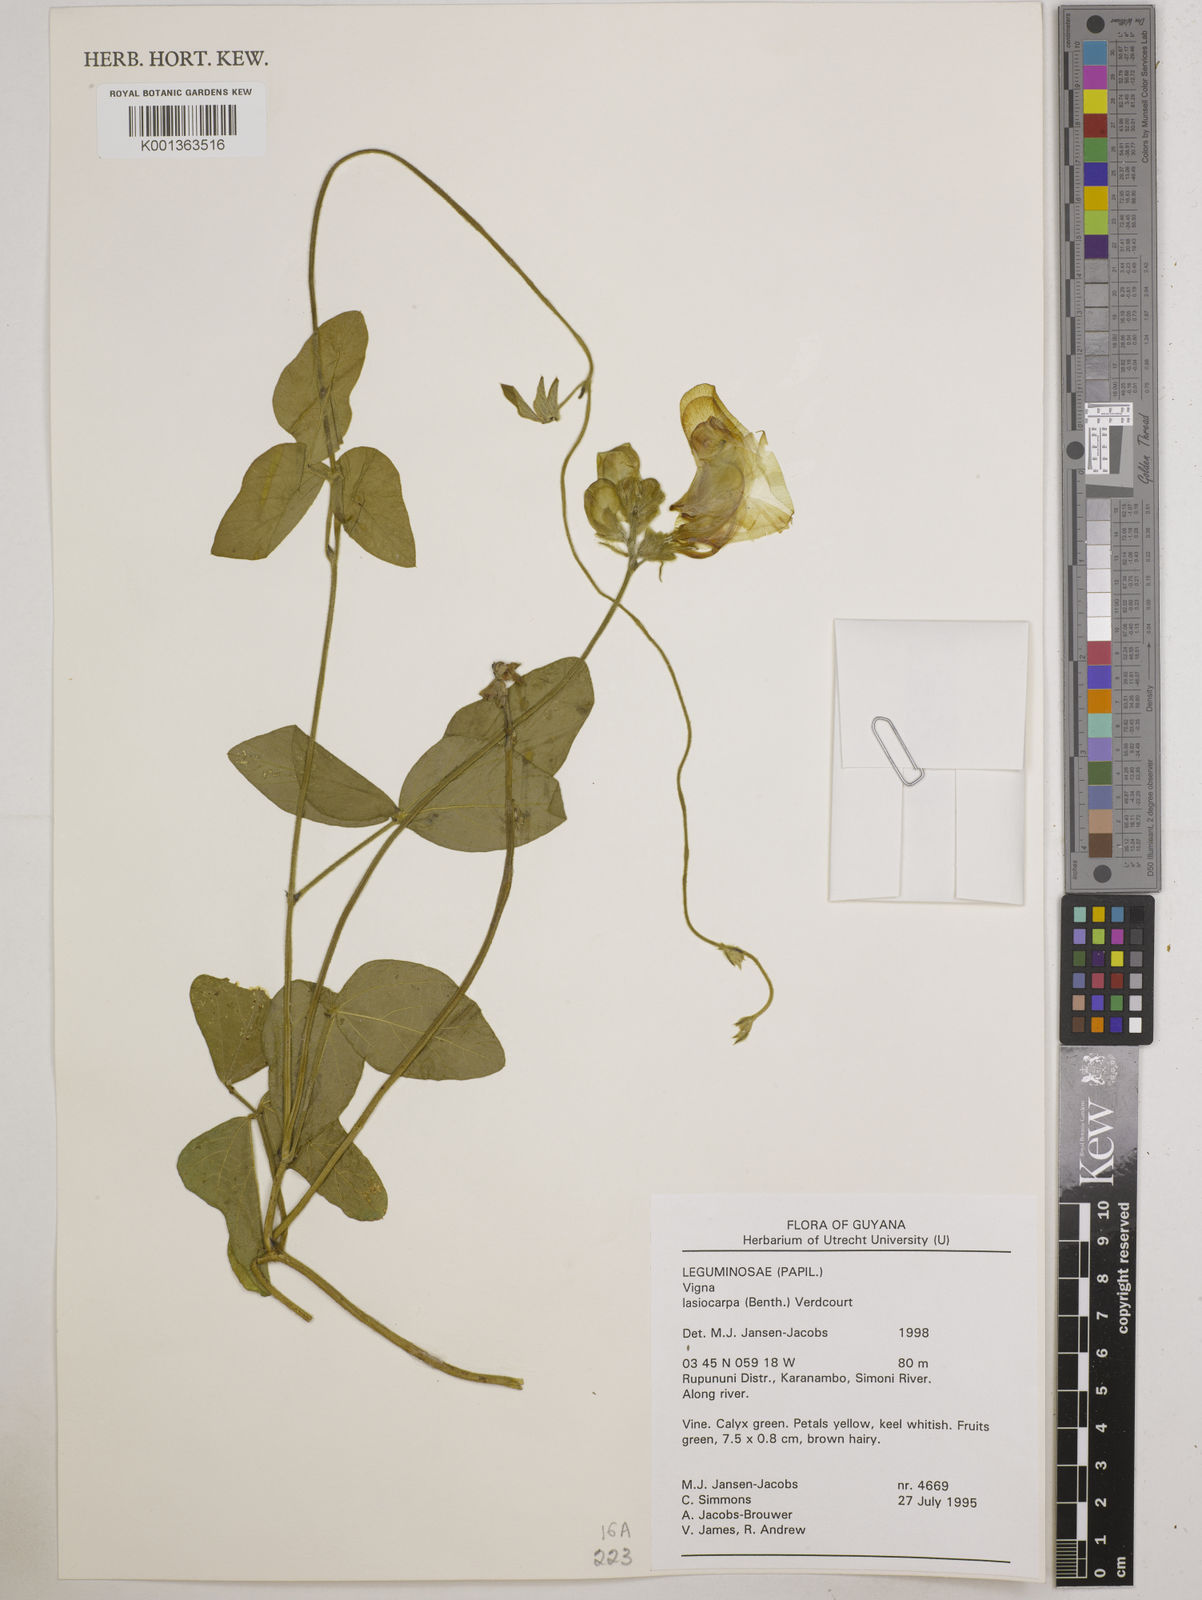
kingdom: Plantae
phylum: Tracheophyta
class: Magnoliopsida
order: Fabales
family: Fabaceae
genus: Vigna
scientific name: Vigna lasiocarpa
